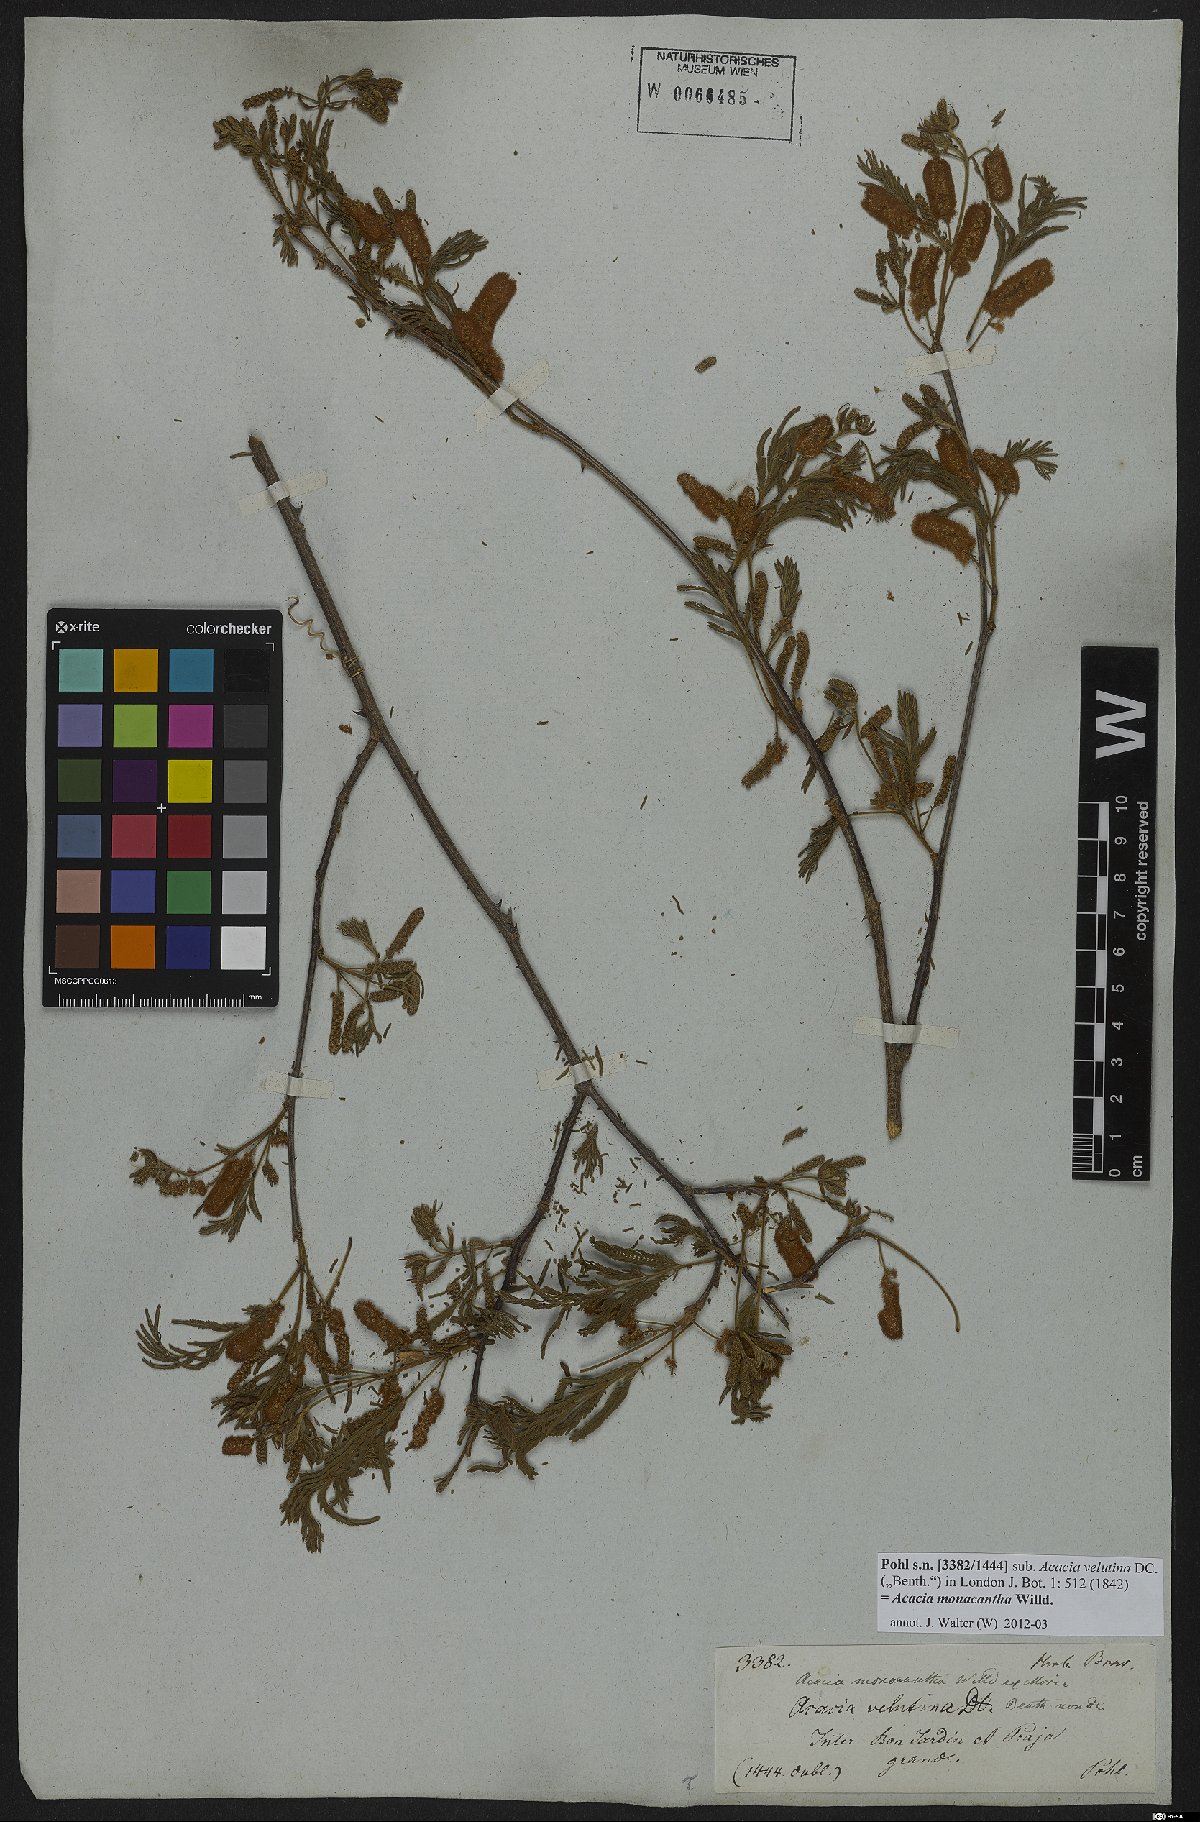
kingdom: Plantae
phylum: Tracheophyta
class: Magnoliopsida
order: Fabales
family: Fabaceae
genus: Senegalia
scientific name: Senegalia monacantha
